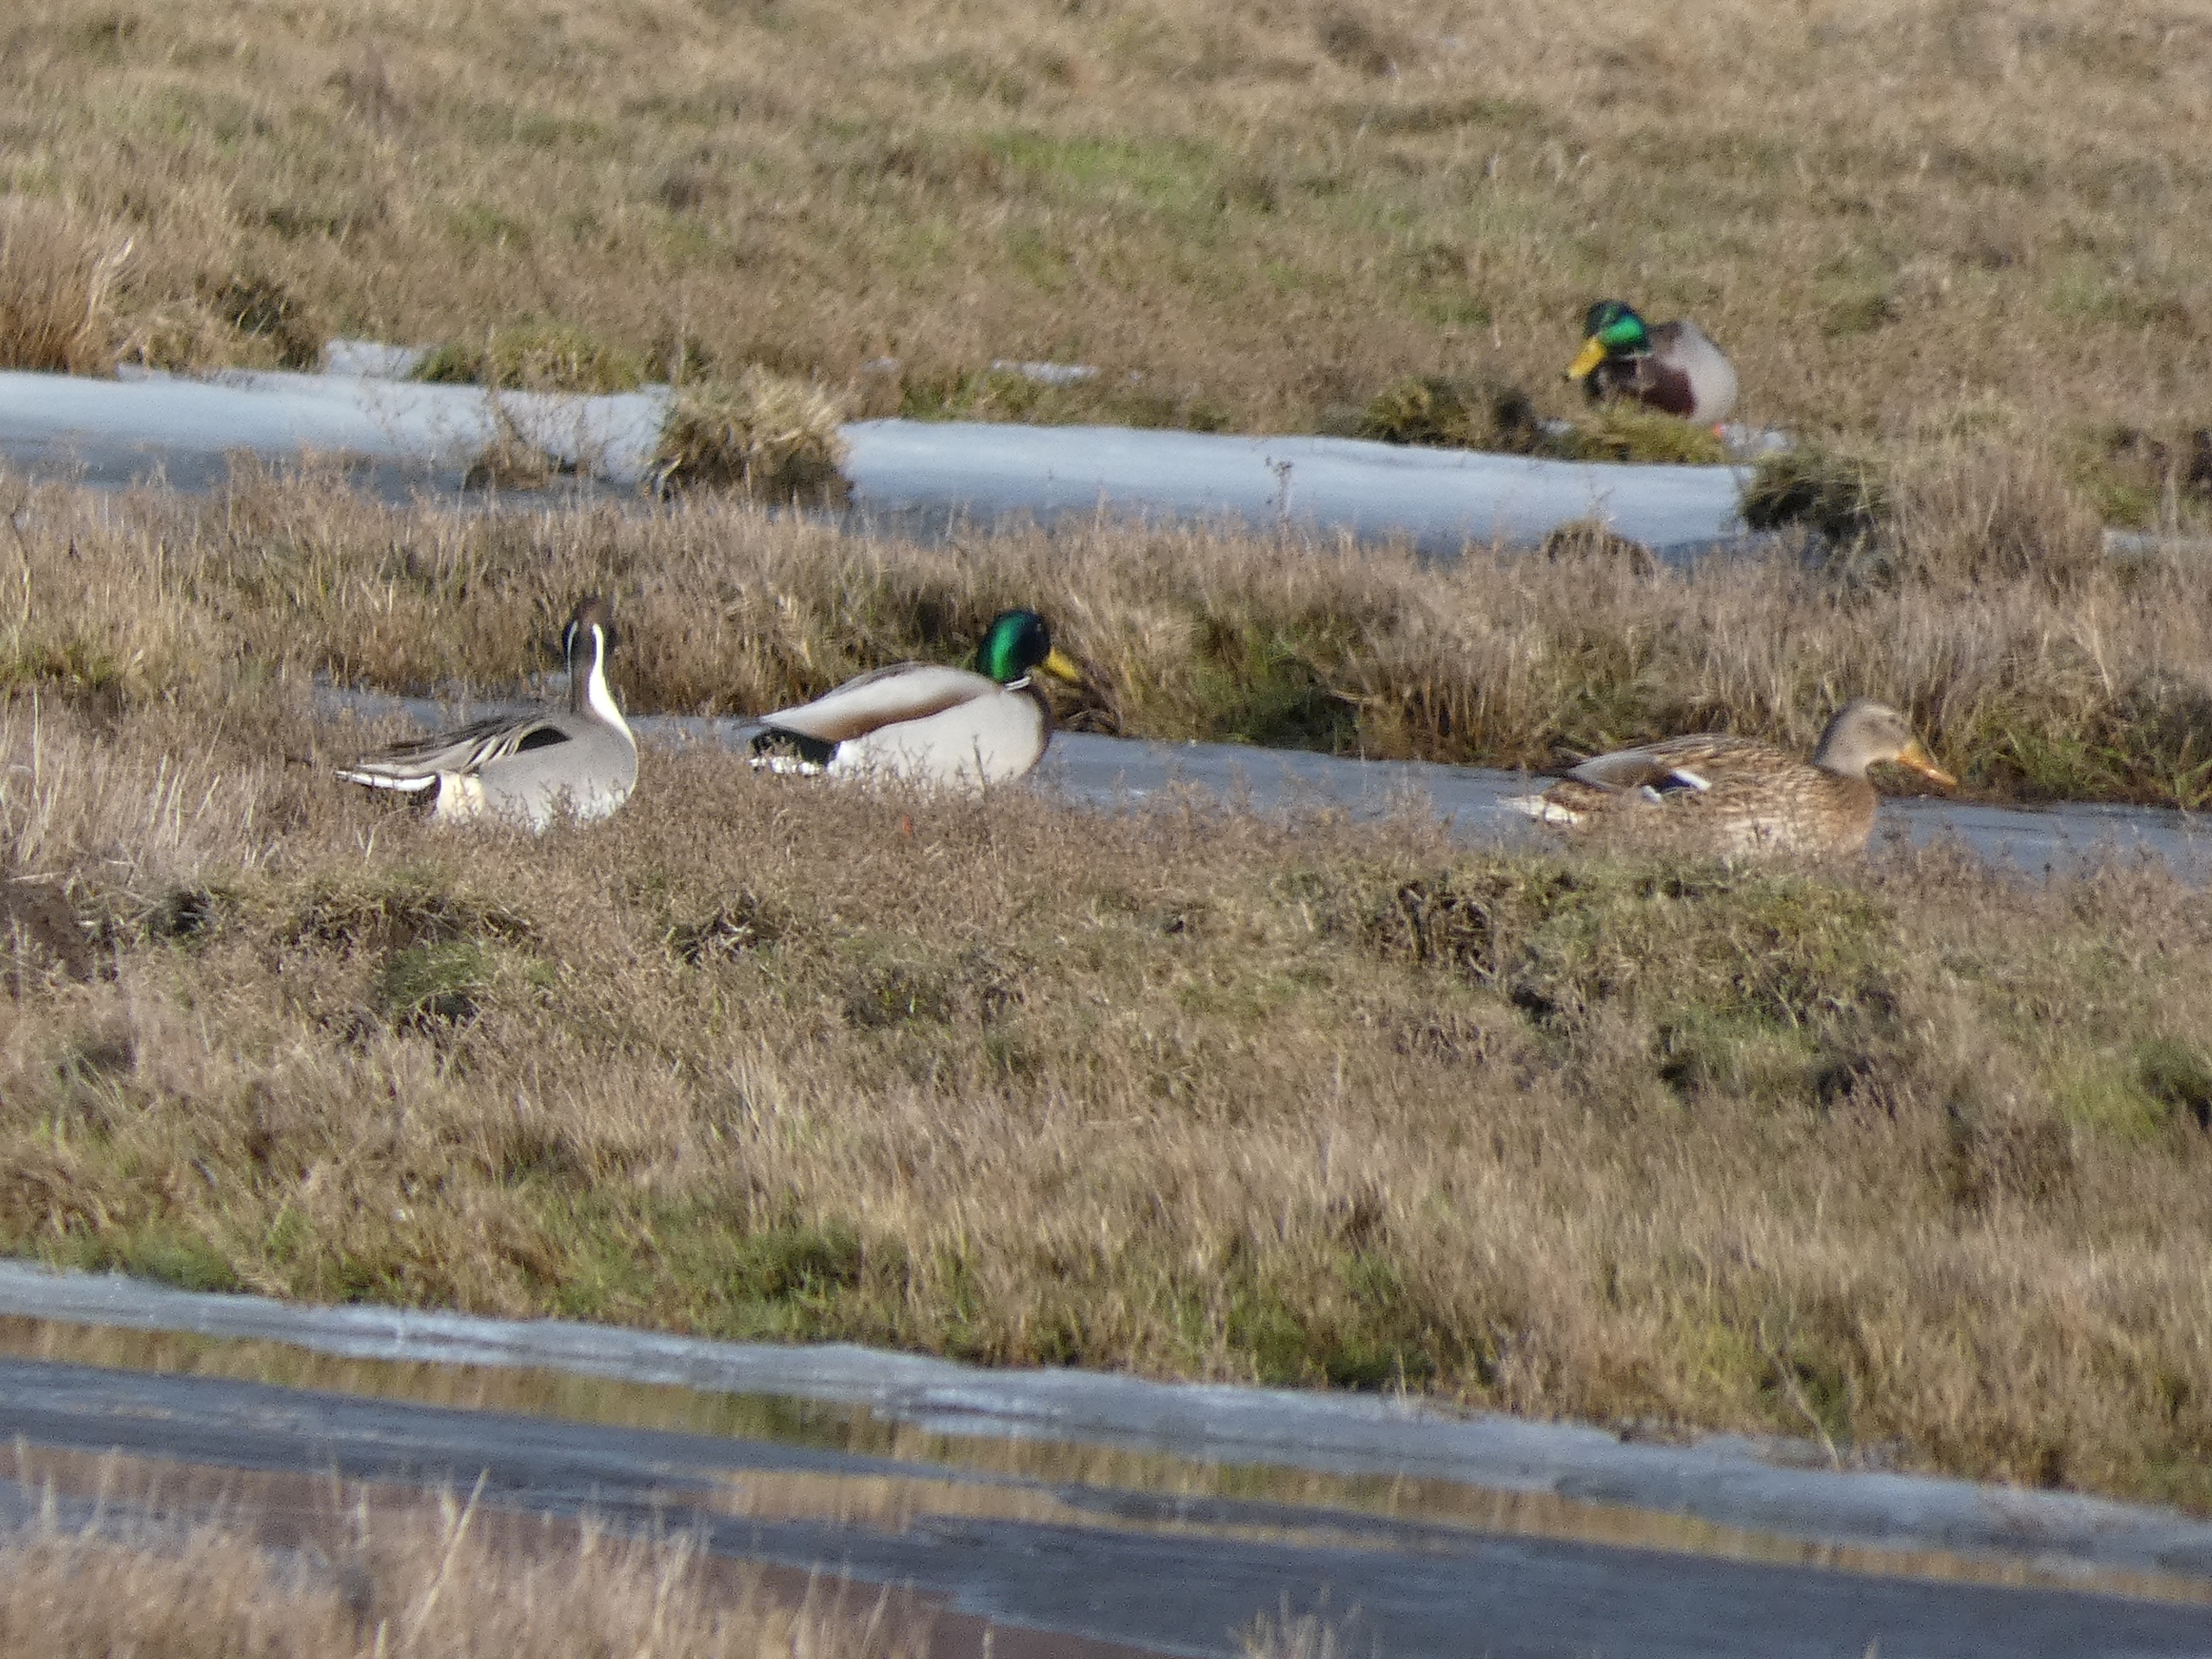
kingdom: Animalia
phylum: Chordata
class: Aves
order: Anseriformes
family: Anatidae
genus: Anas
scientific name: Anas acuta
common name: Spidsand
